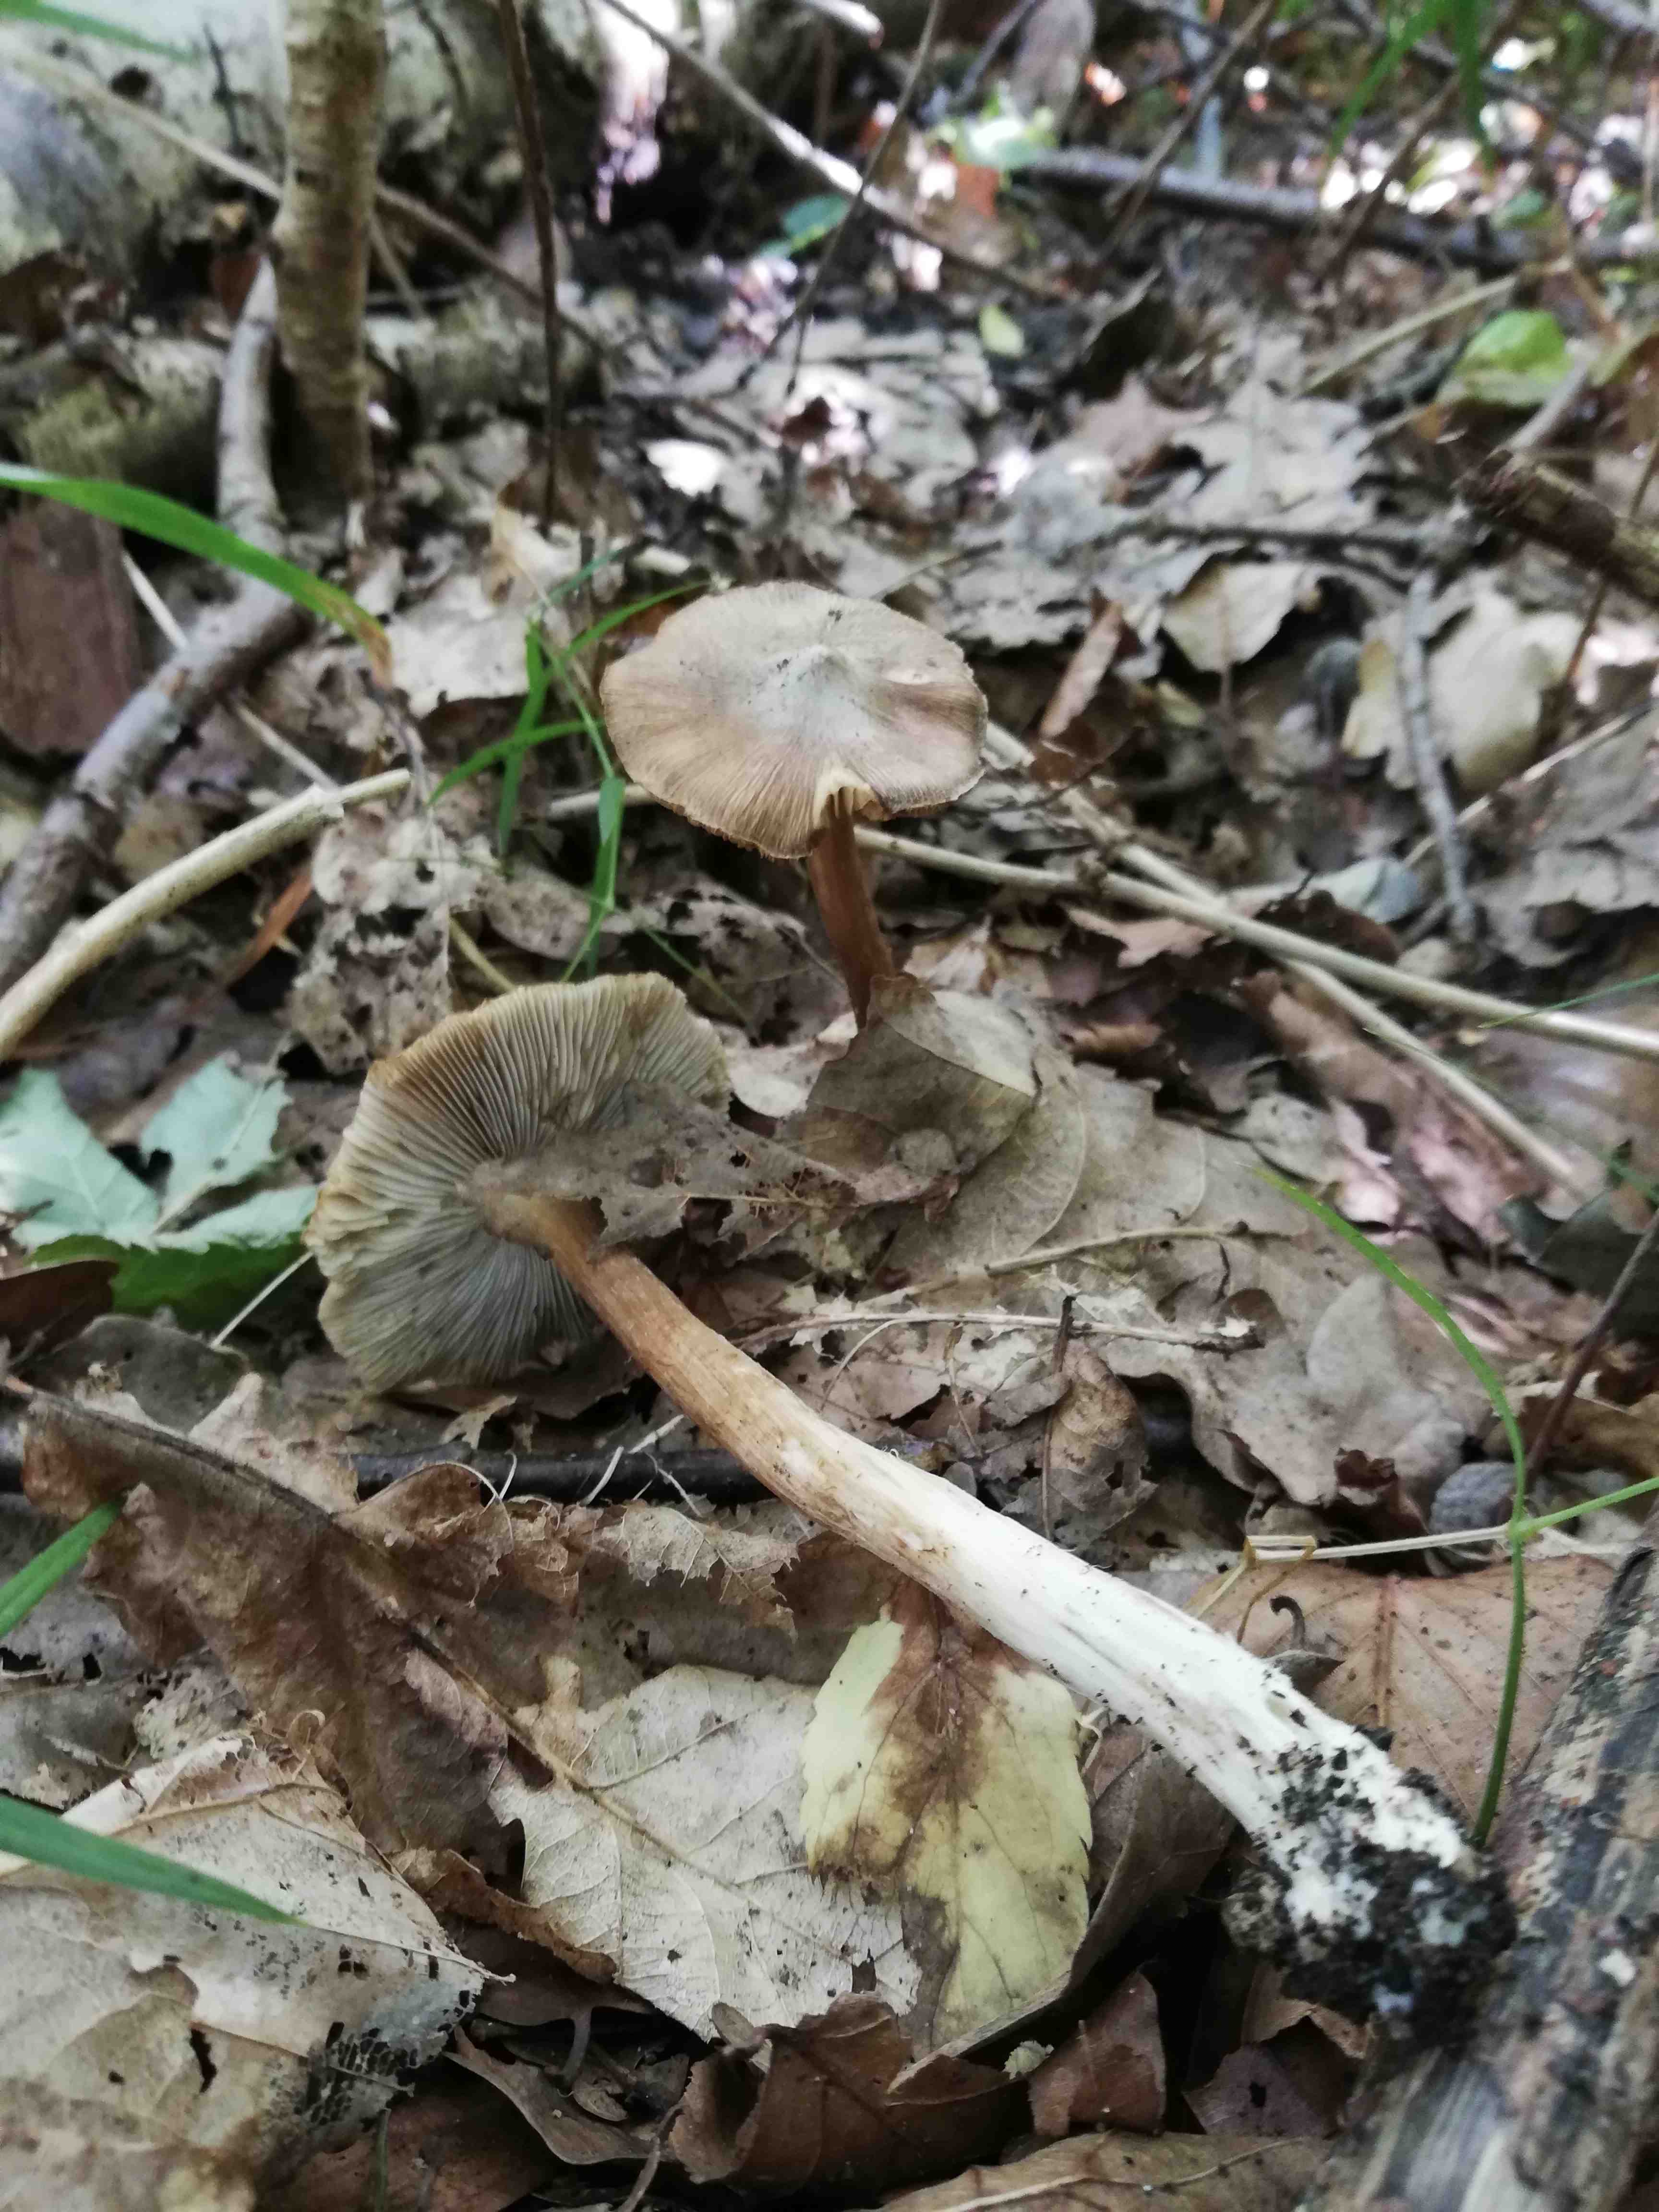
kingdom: Fungi
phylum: Basidiomycota
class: Agaricomycetes
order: Agaricales
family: Inocybaceae
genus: Inocybe
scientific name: Inocybe napipes
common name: roeknoldet trævlhat
